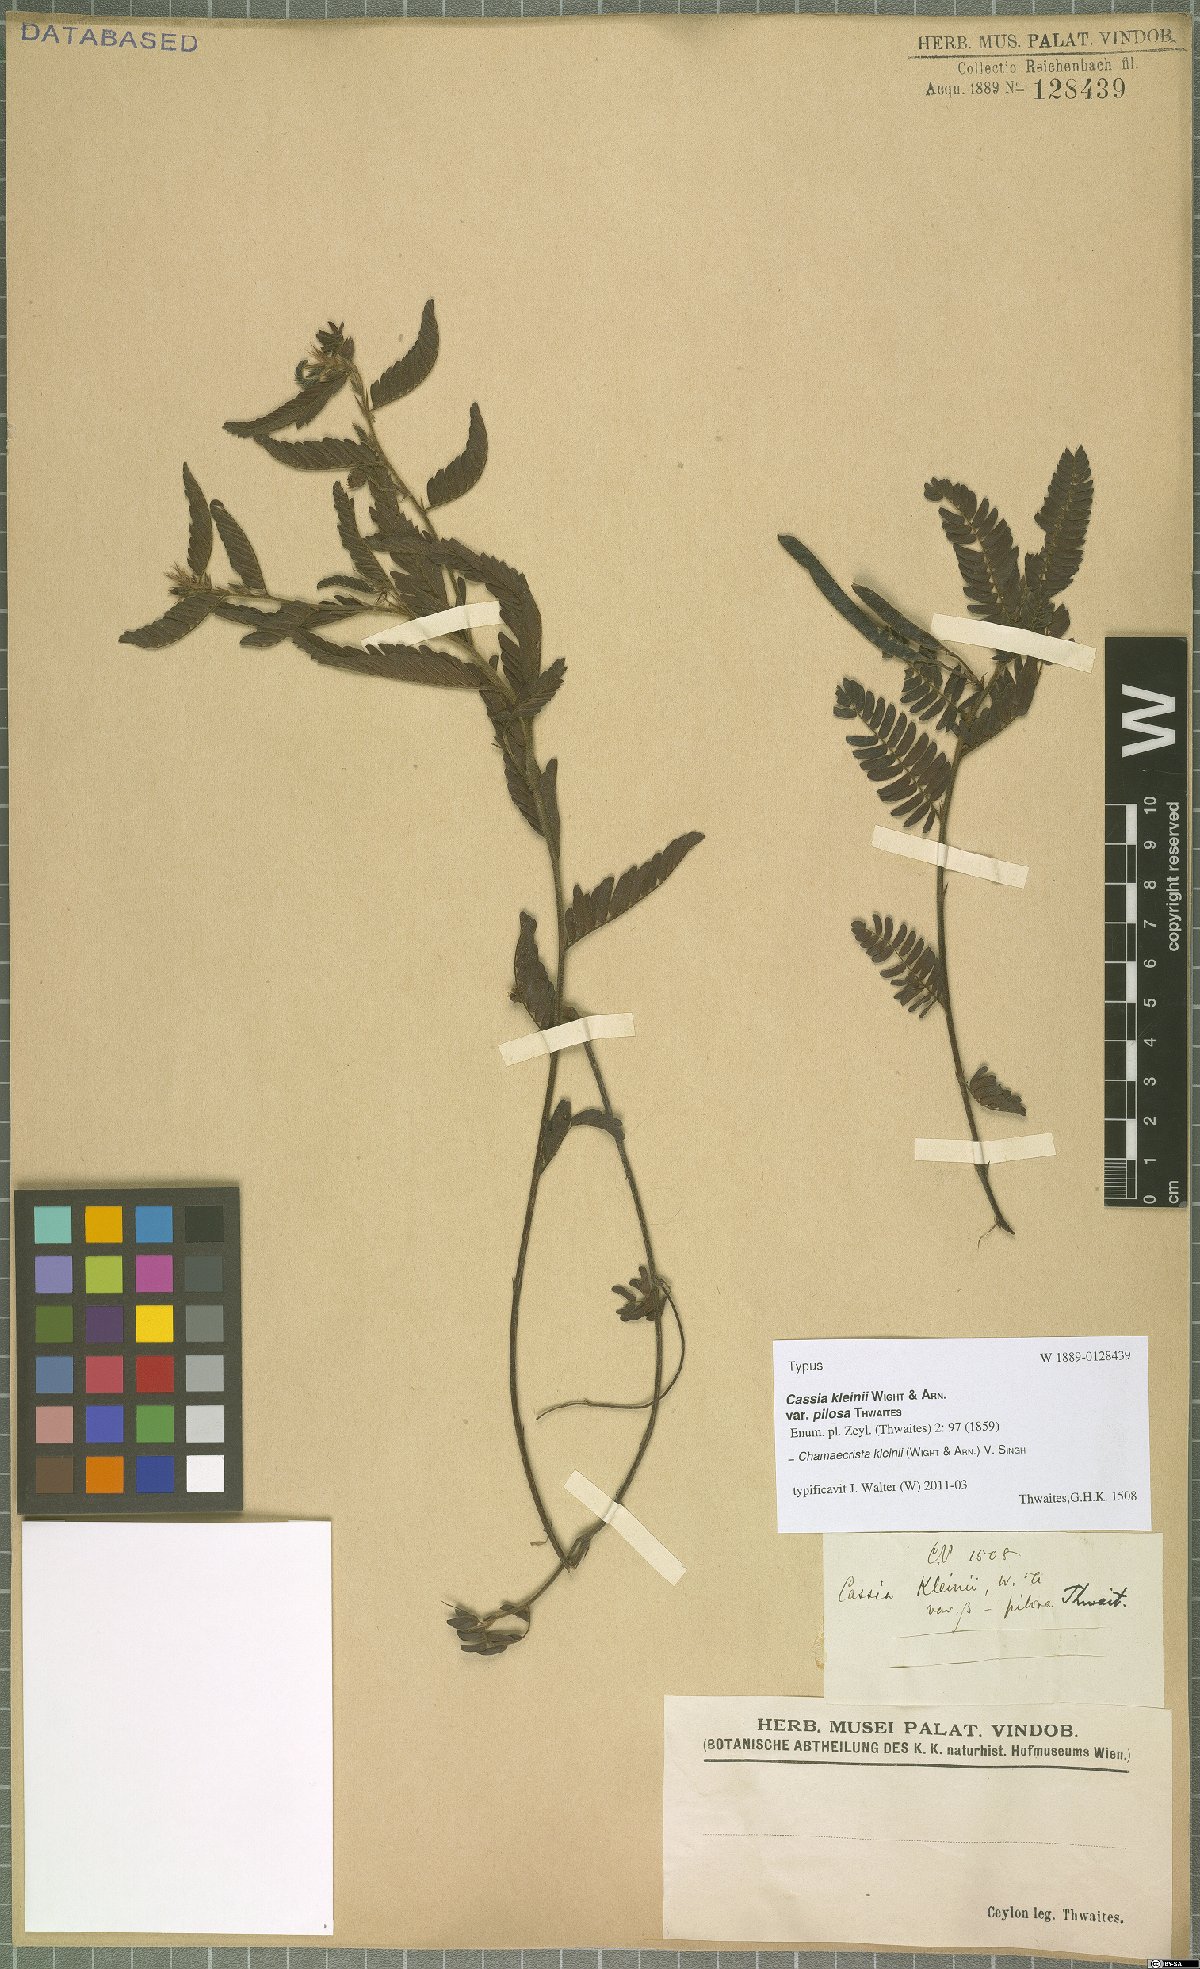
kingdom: Plantae
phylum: Tracheophyta
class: Magnoliopsida
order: Fabales
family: Fabaceae
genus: Chamaecrista
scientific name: Chamaecrista kleinii
